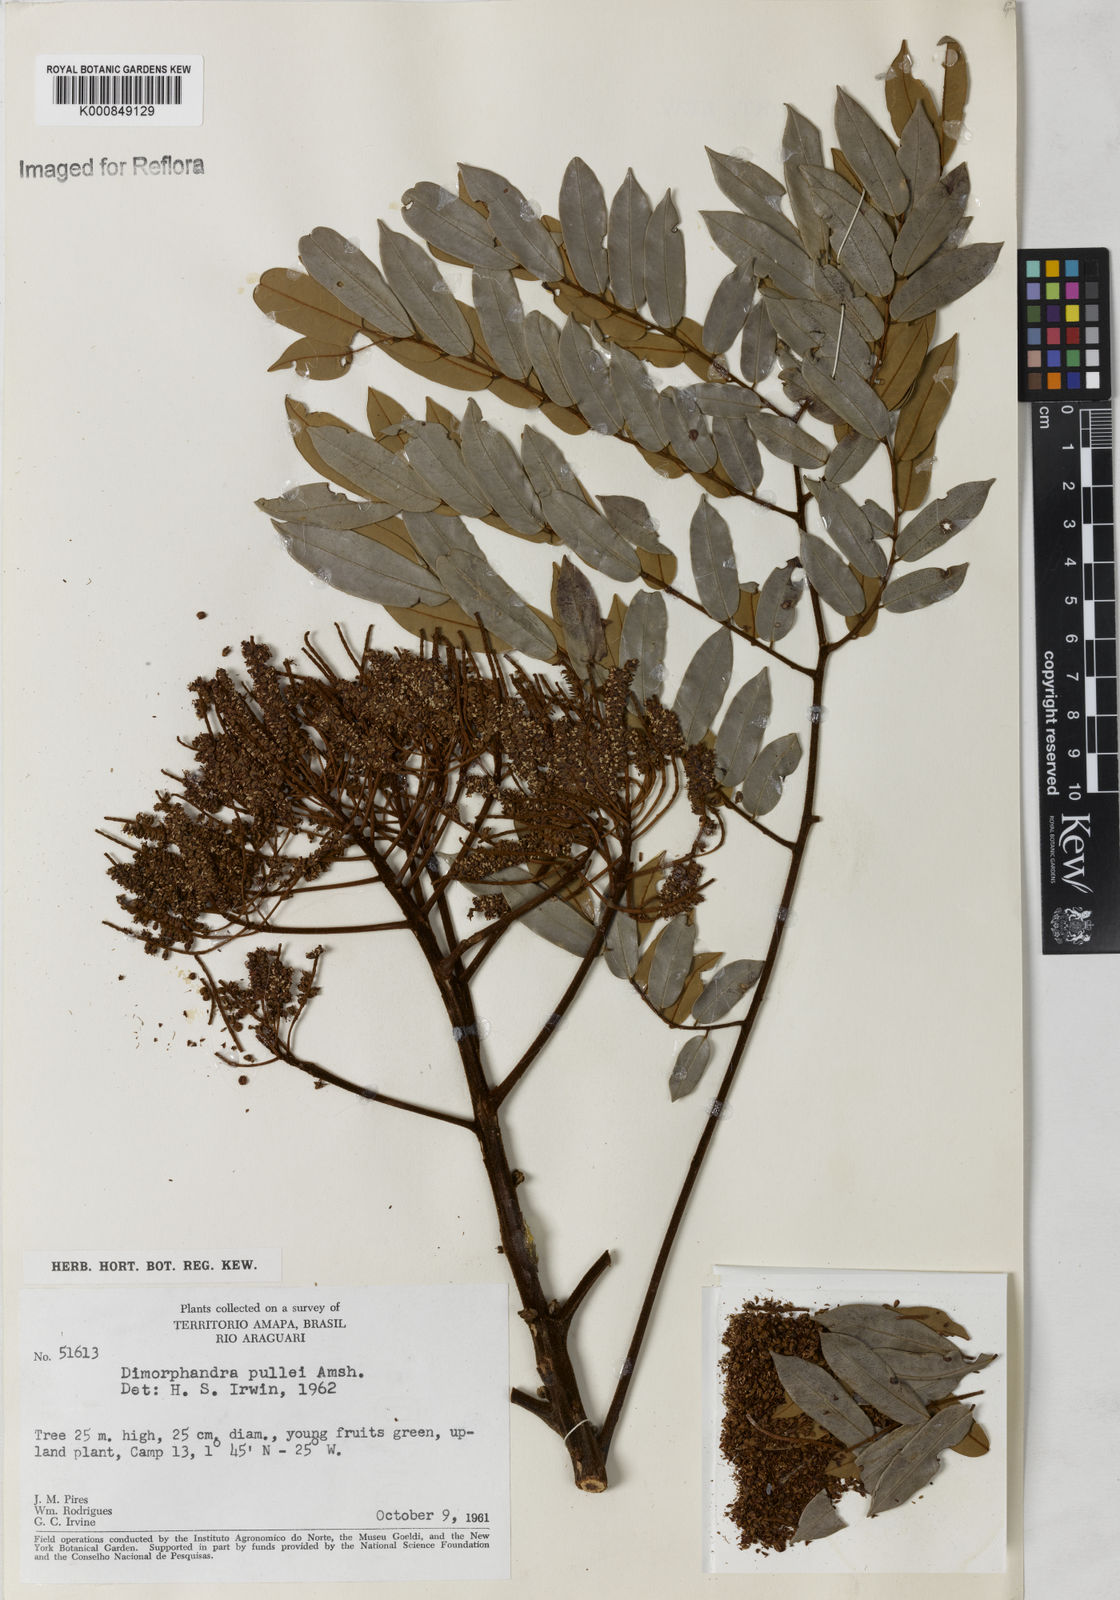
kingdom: Plantae
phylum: Tracheophyta
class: Magnoliopsida
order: Fabales
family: Fabaceae
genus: Dimorphandra
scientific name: Dimorphandra pullei
